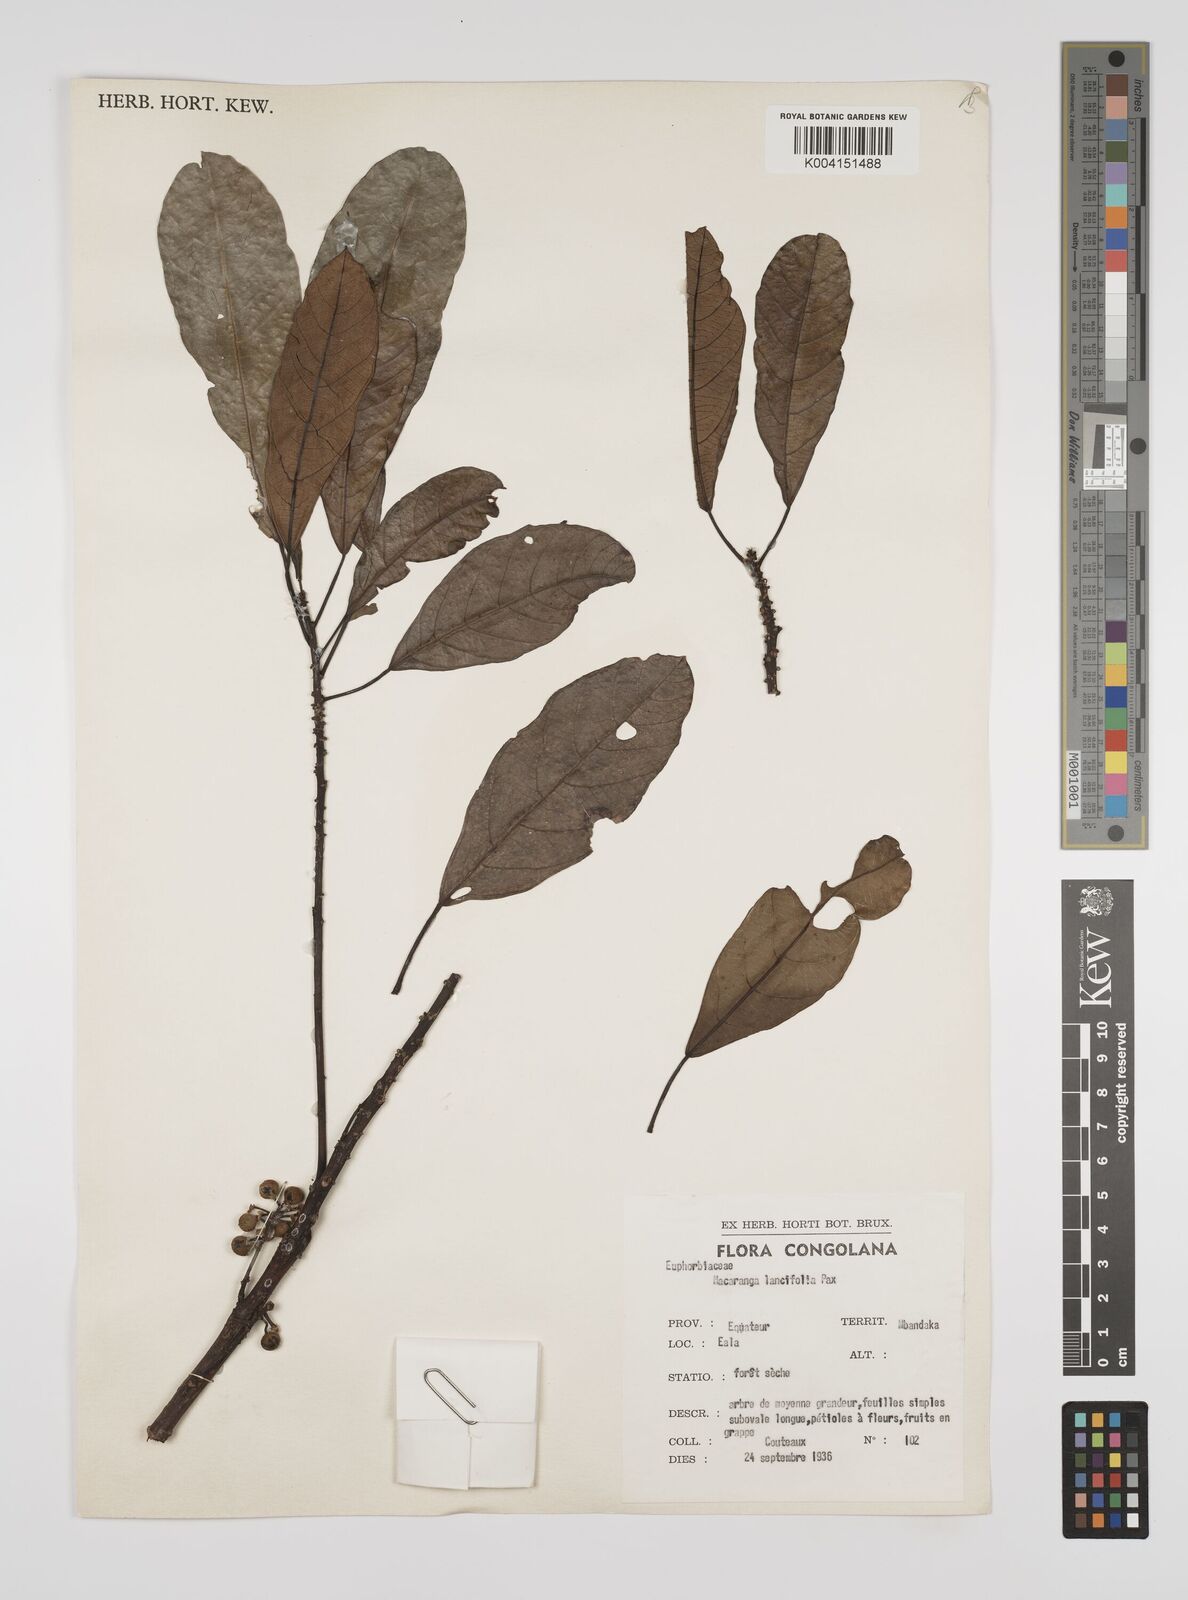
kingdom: Plantae
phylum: Tracheophyta
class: Magnoliopsida
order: Malpighiales
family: Euphorbiaceae
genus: Macaranga
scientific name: Macaranga barteri
